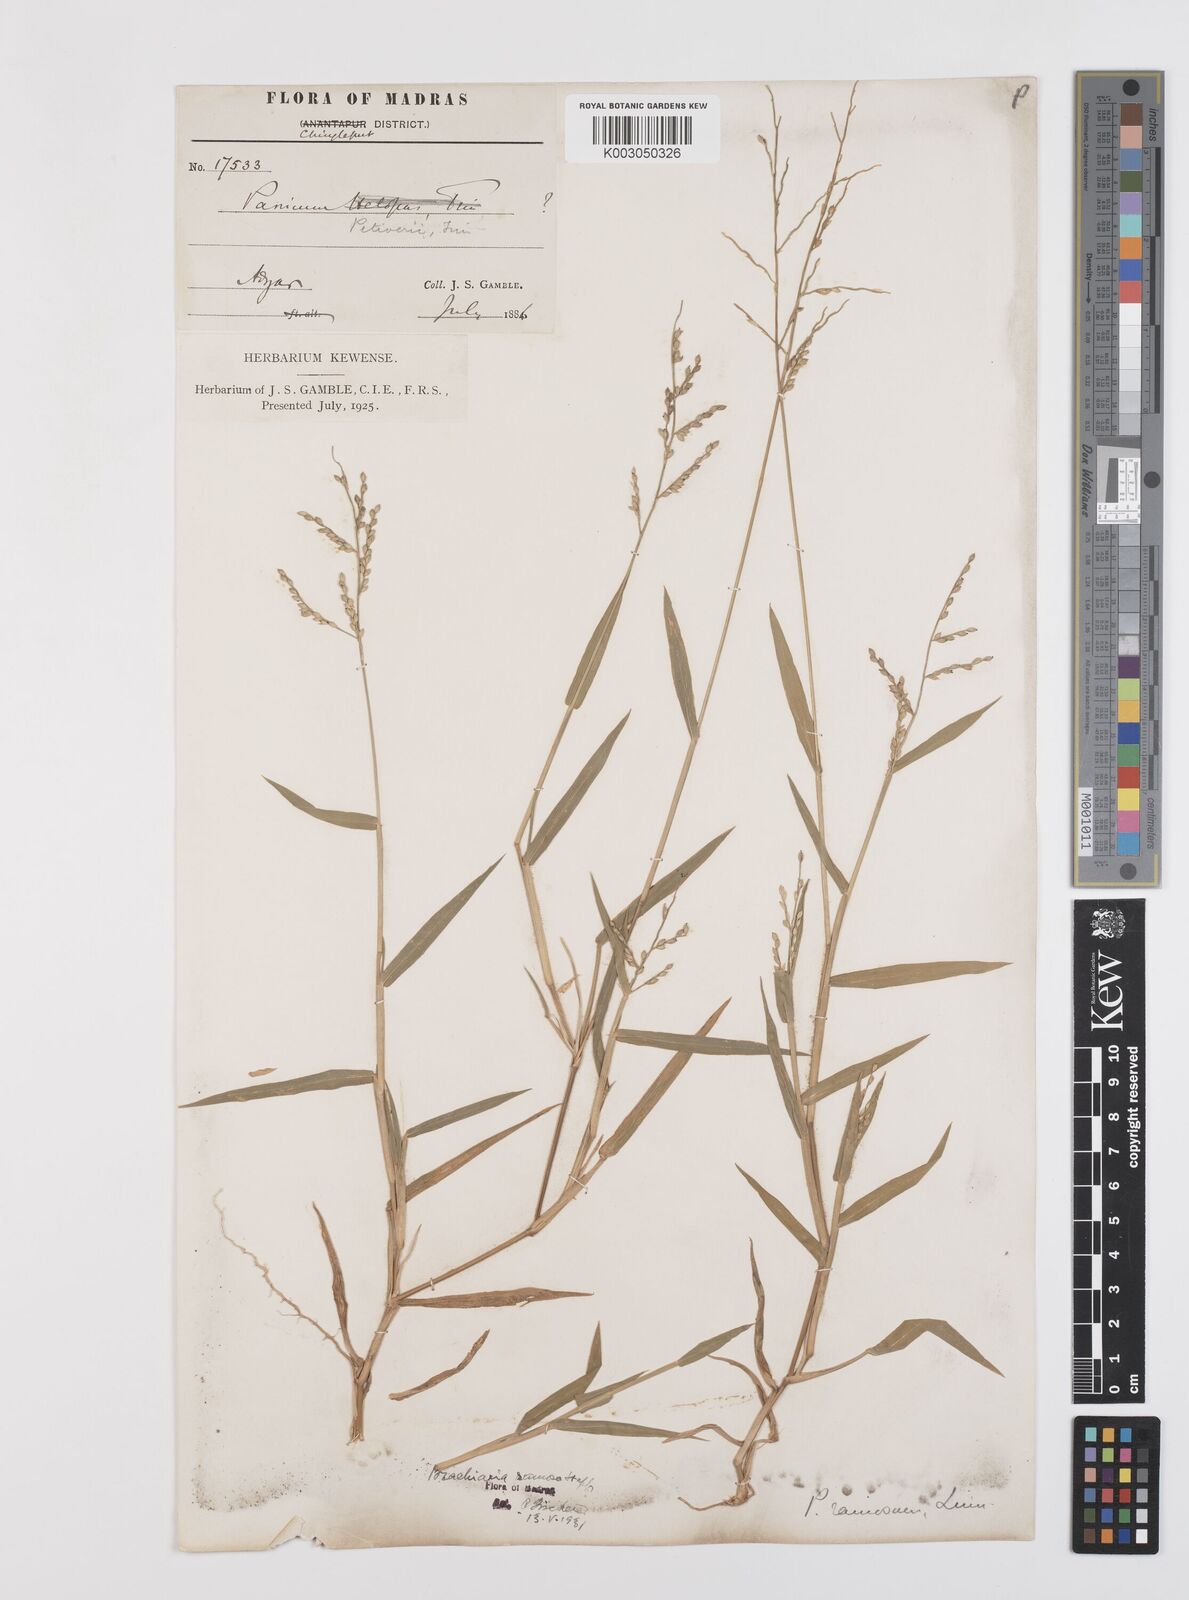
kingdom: Plantae
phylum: Tracheophyta
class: Liliopsida
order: Poales
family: Poaceae
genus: Urochloa
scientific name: Urochloa ramosa
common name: Browntop millet
